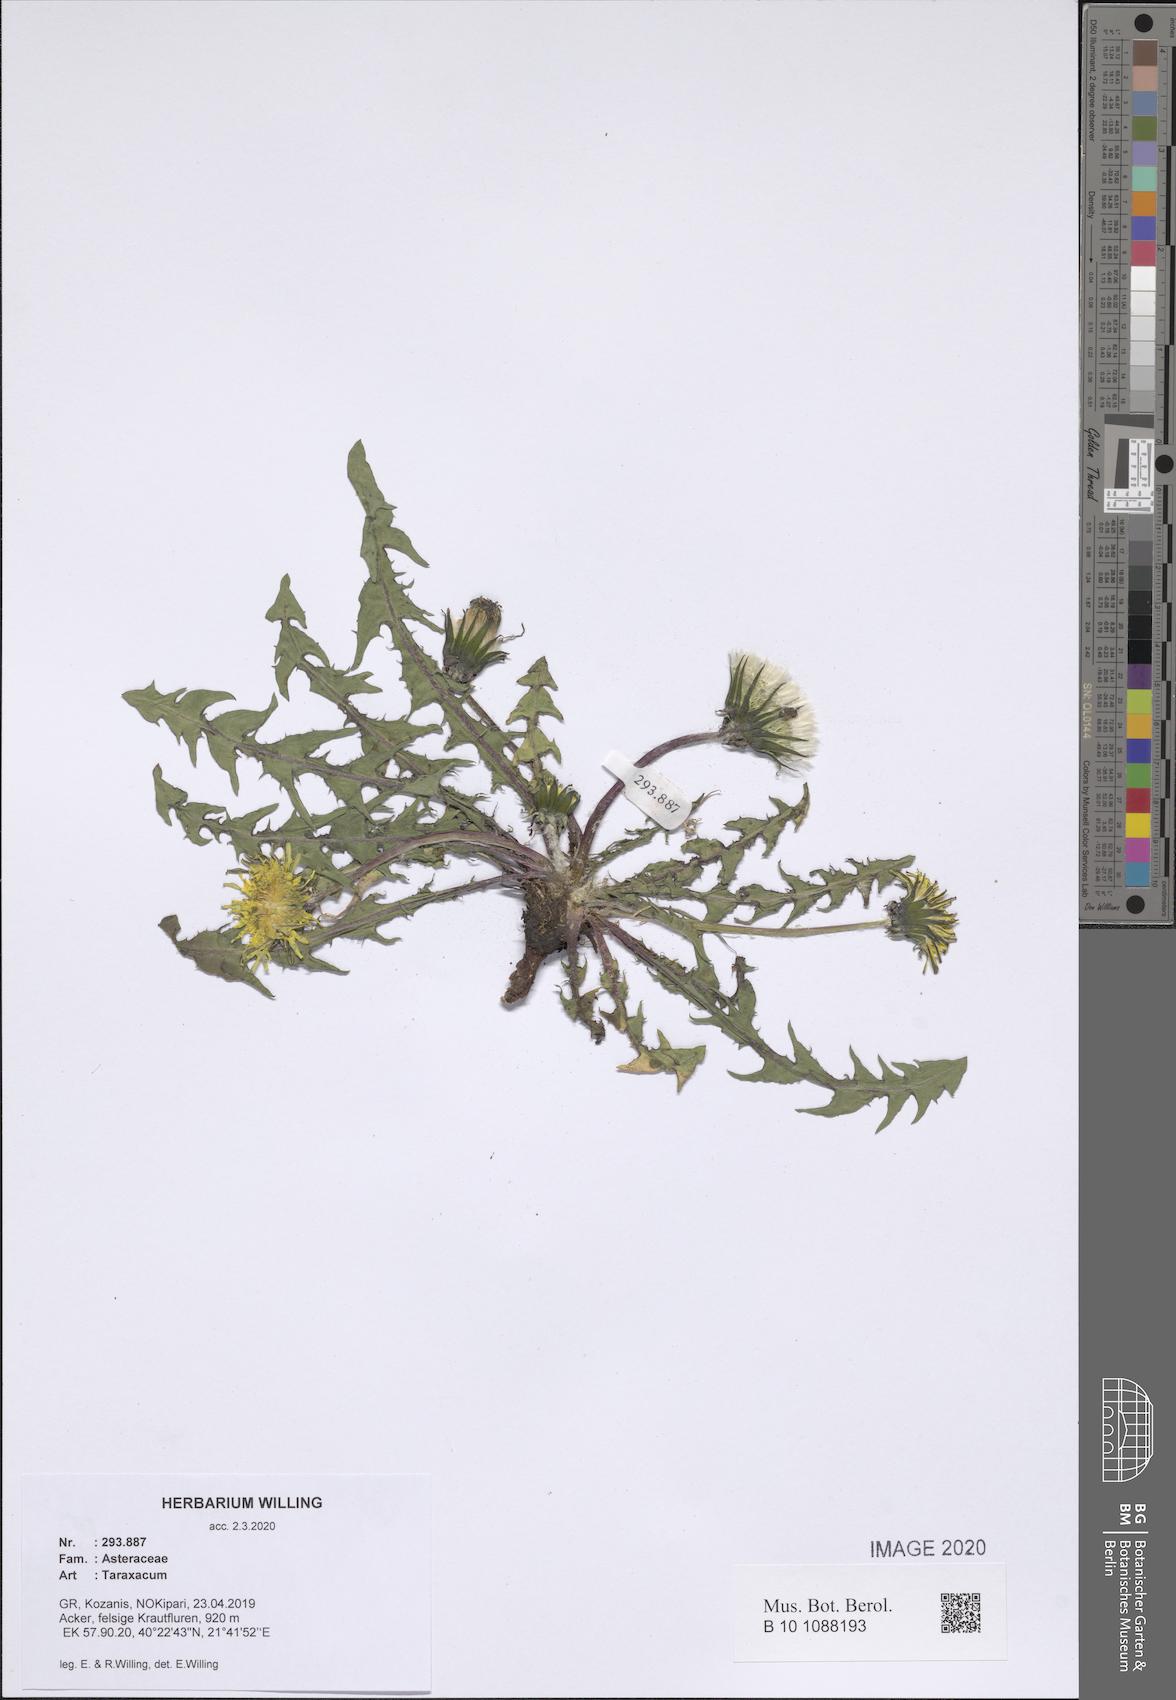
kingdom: Plantae
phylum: Tracheophyta
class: Magnoliopsida
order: Asterales
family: Asteraceae
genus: Taraxacum
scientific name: Taraxacum
